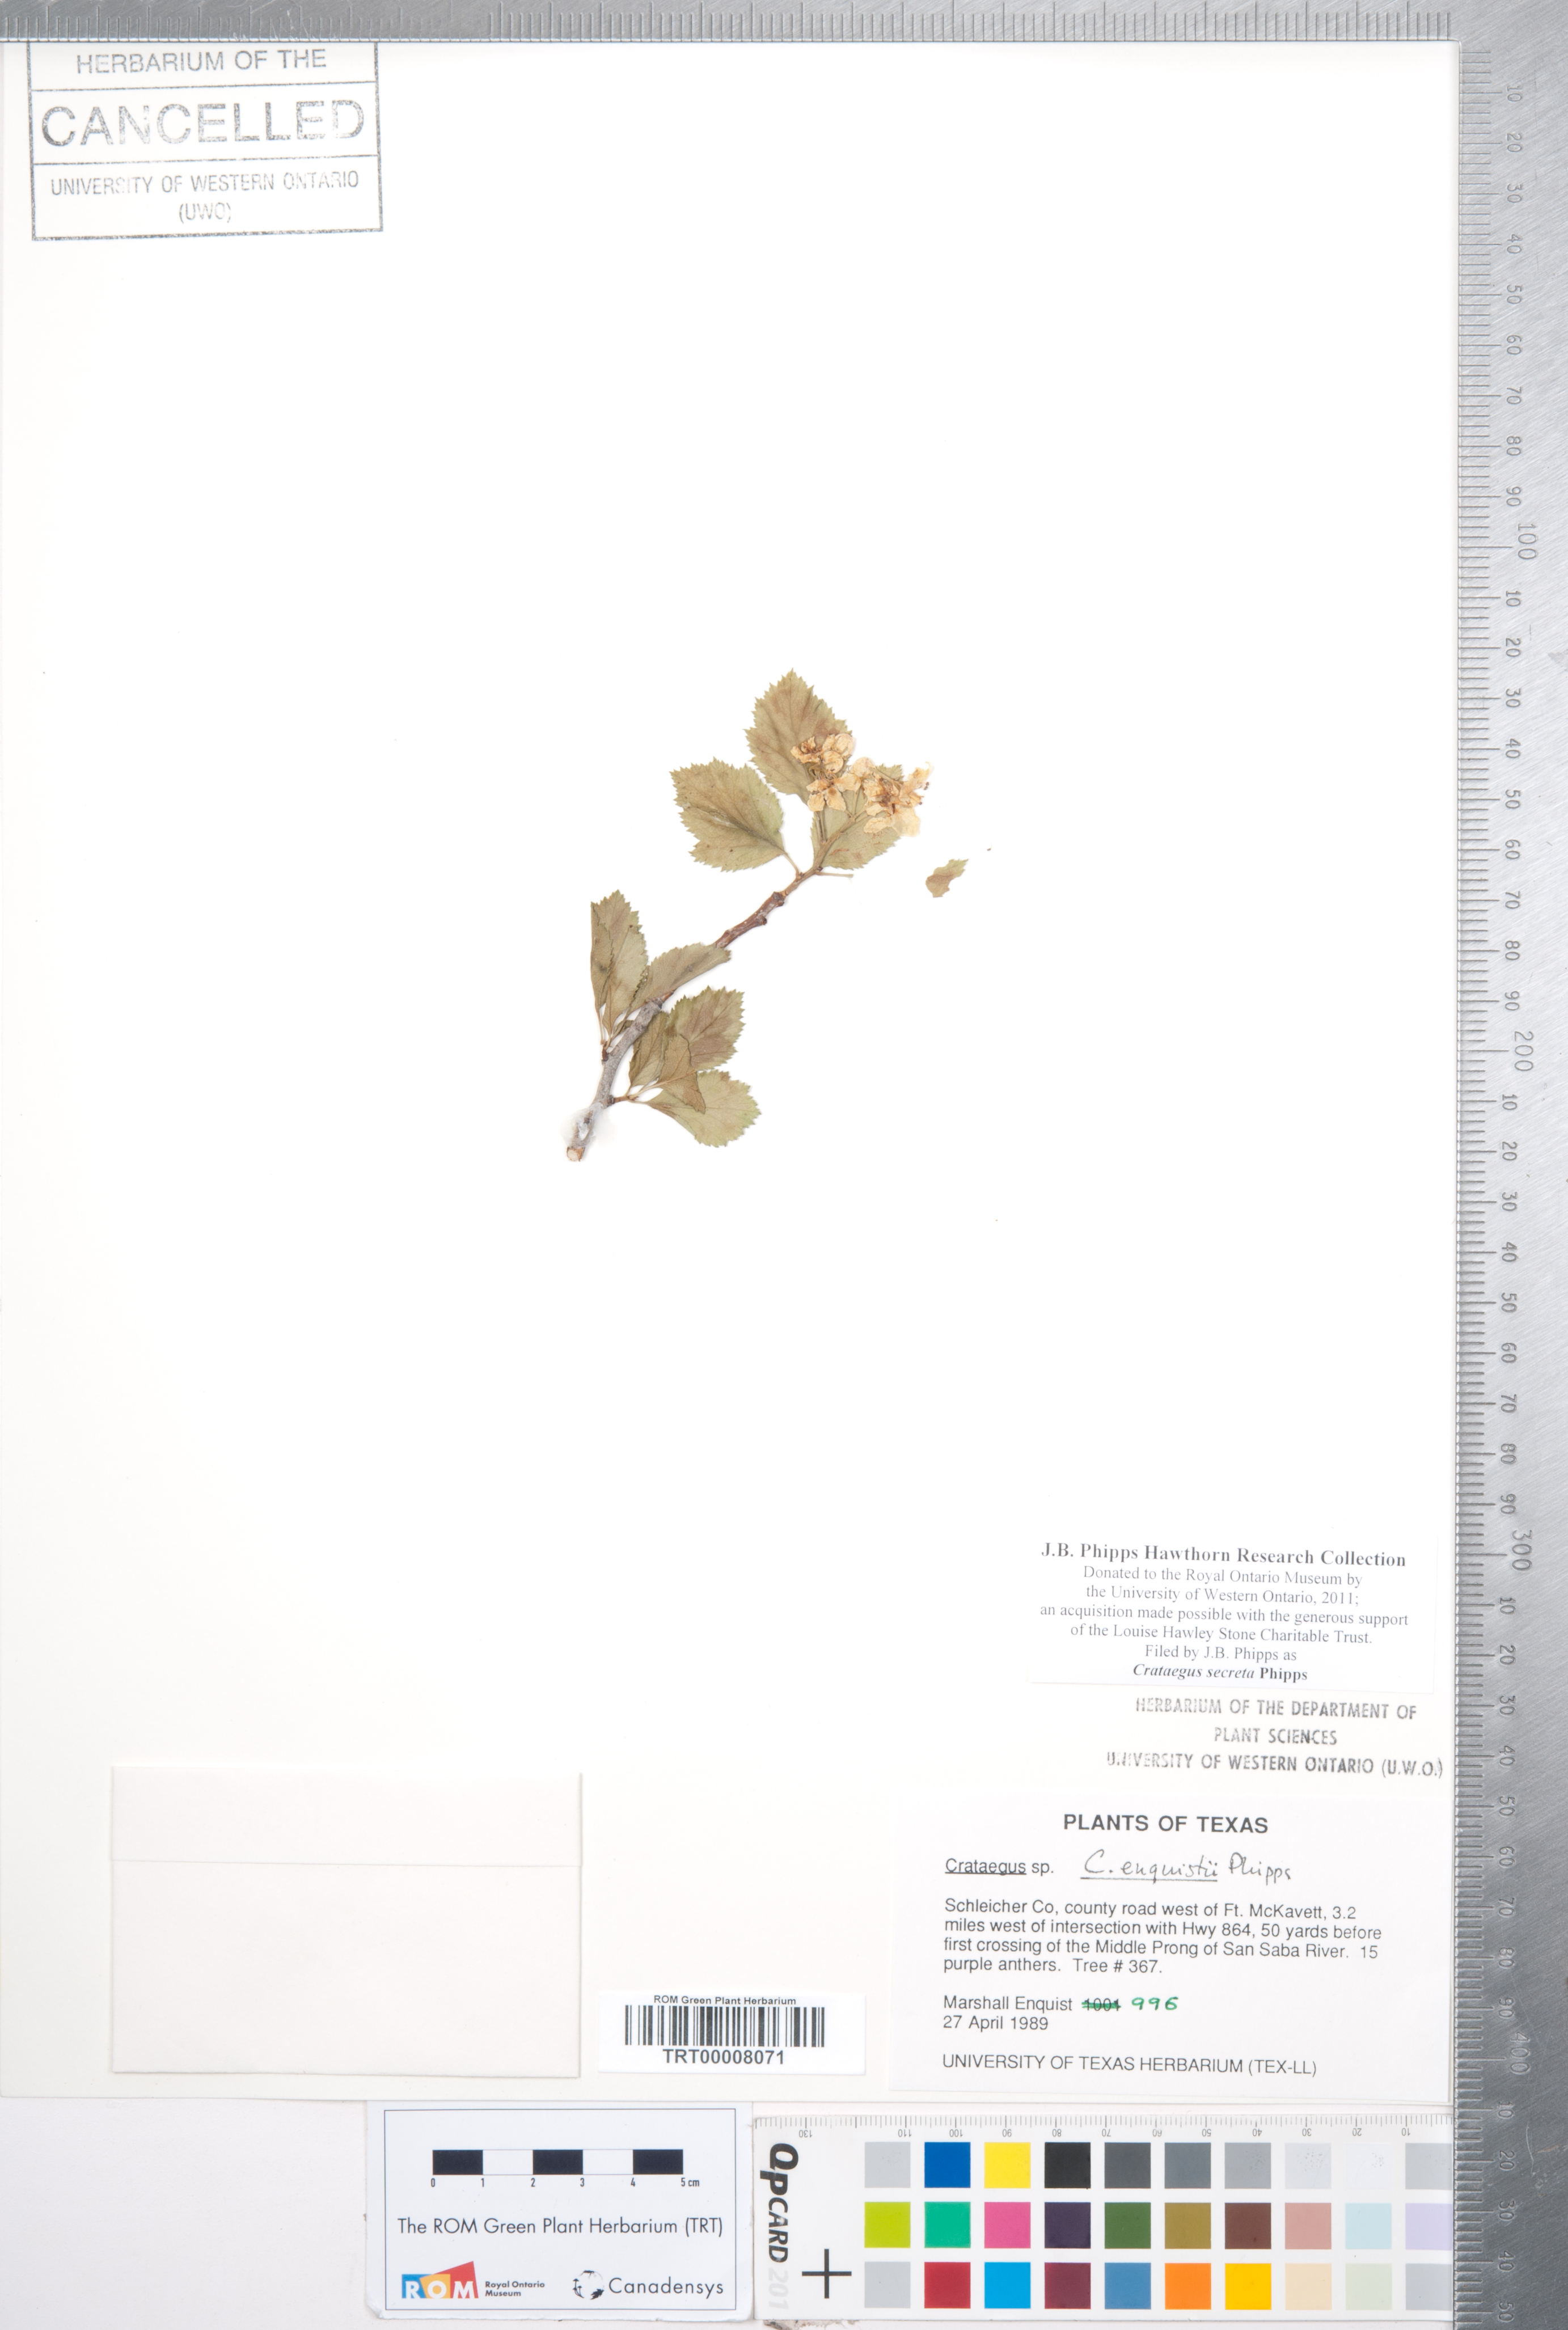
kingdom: Plantae
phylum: Tracheophyta
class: Magnoliopsida
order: Rosales
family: Rosaceae
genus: Crataegus
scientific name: Crataegus turnerorum
